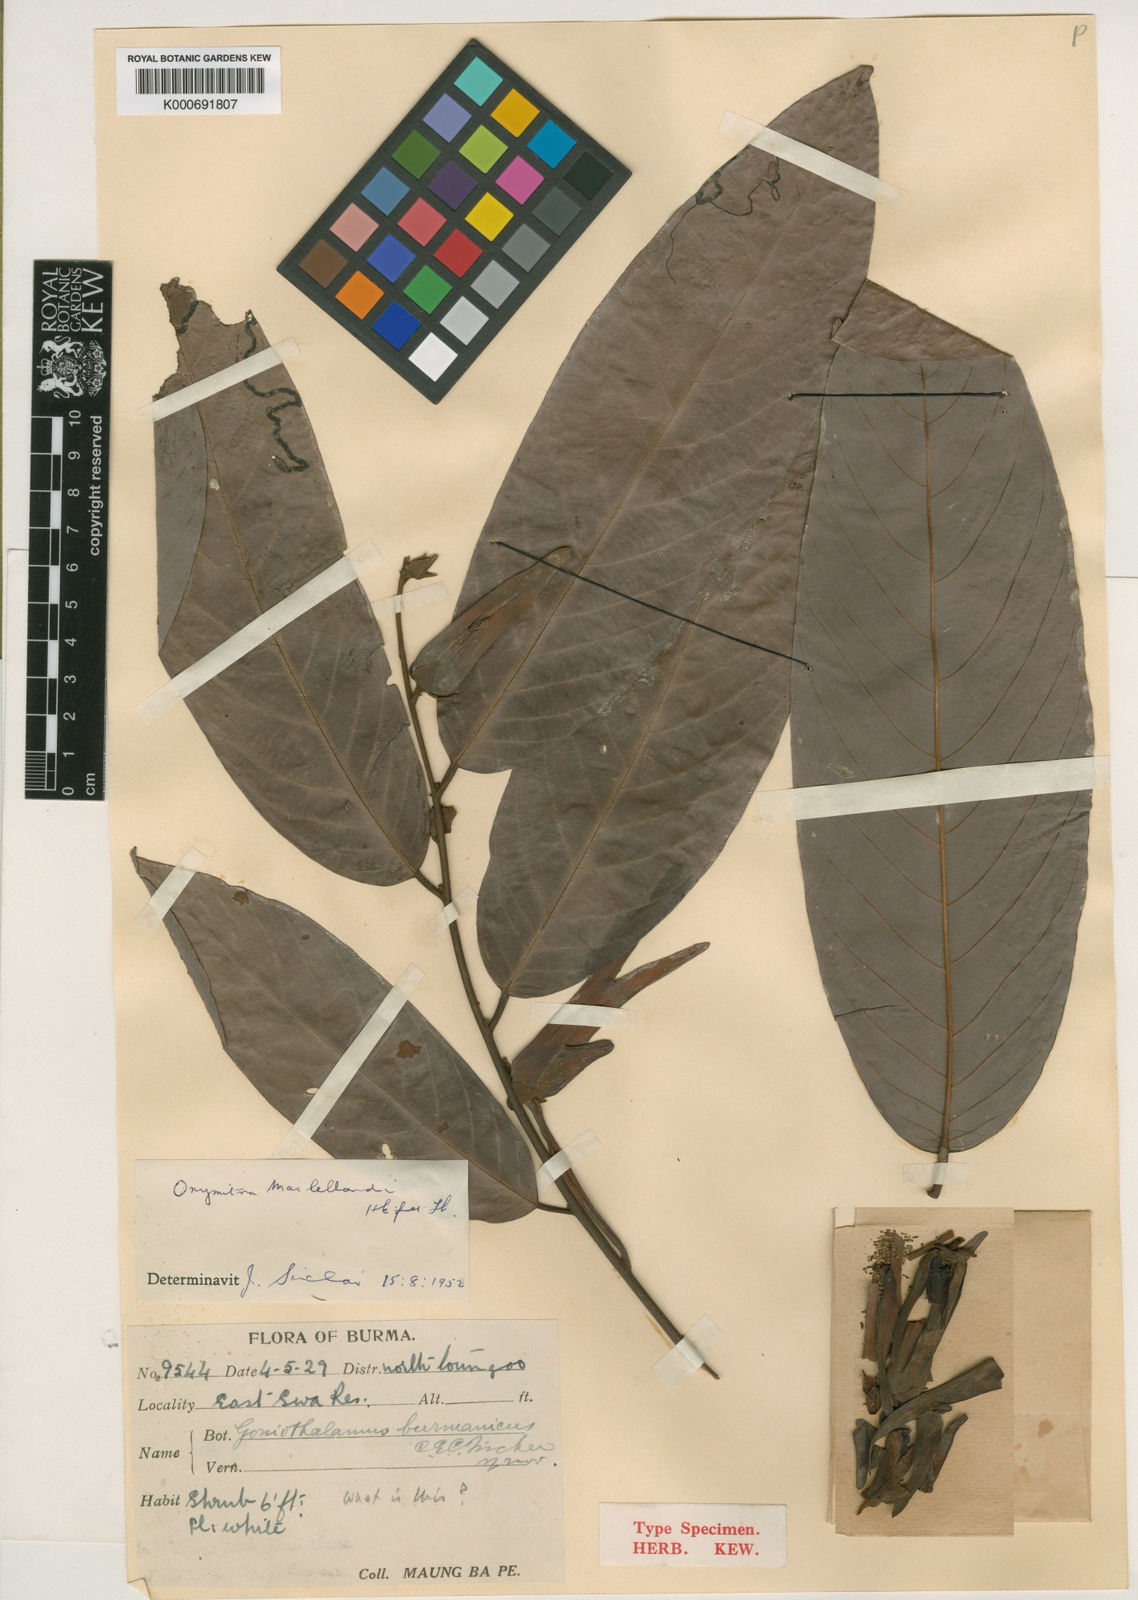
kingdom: Plantae
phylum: Tracheophyta
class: Magnoliopsida
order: Magnoliales
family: Annonaceae
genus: Friesodielsia
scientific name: Friesodielsia maclellandii
